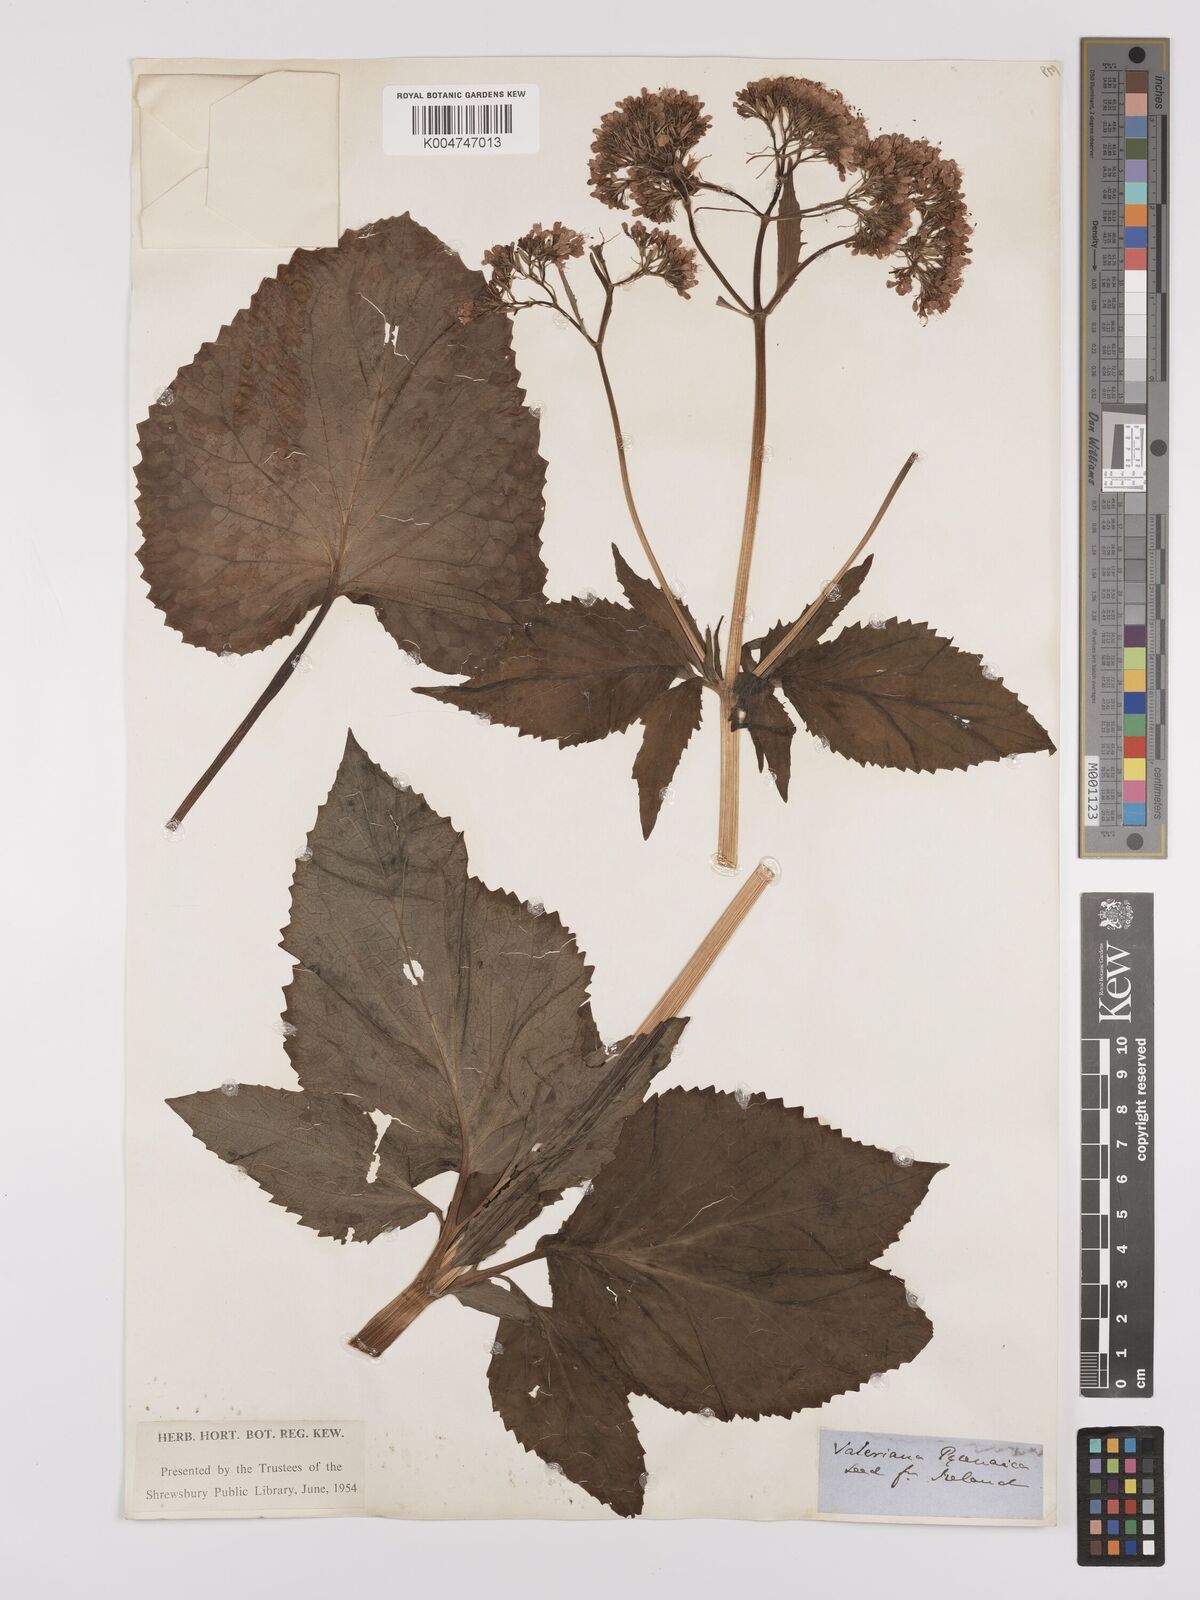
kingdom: Plantae
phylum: Tracheophyta
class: Magnoliopsida
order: Dipsacales
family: Caprifoliaceae
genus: Valeriana
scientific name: Valeriana pyrenaica
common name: Pyrenean valerian
